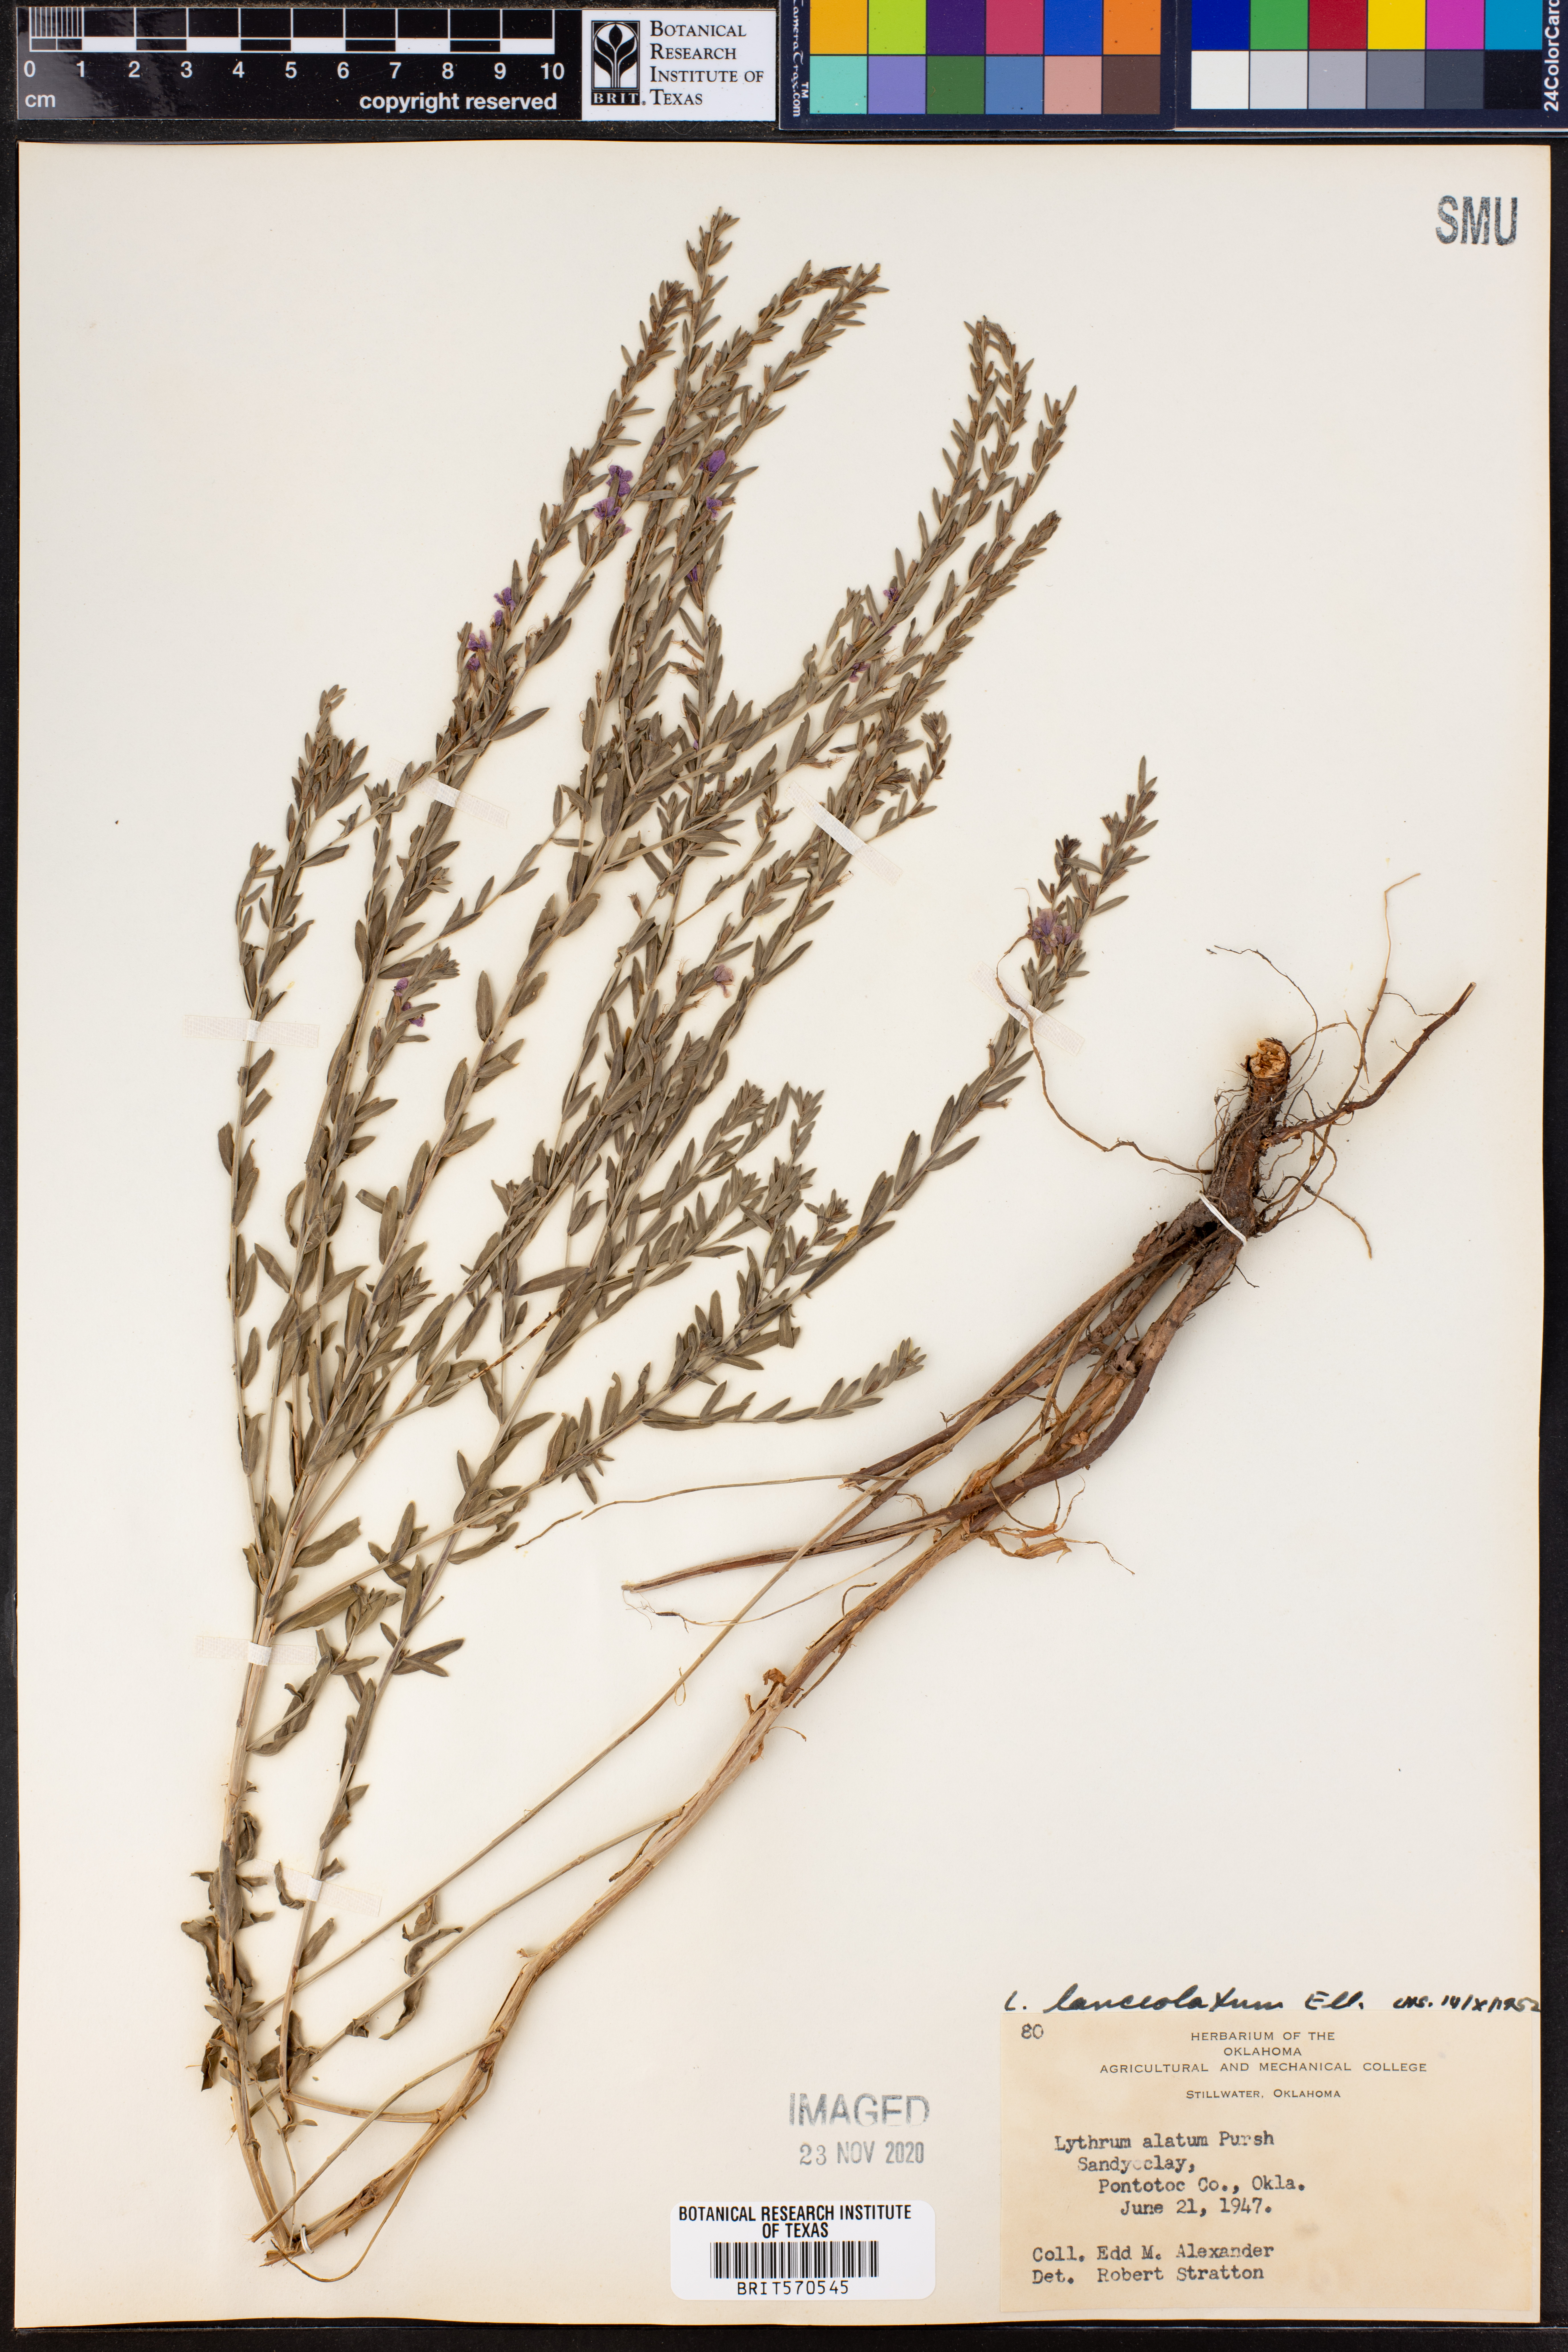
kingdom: Plantae
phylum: Tracheophyta
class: Magnoliopsida
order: Myrtales
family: Lythraceae
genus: Lythrum
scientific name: Lythrum alatum
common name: Winged loosestrife
